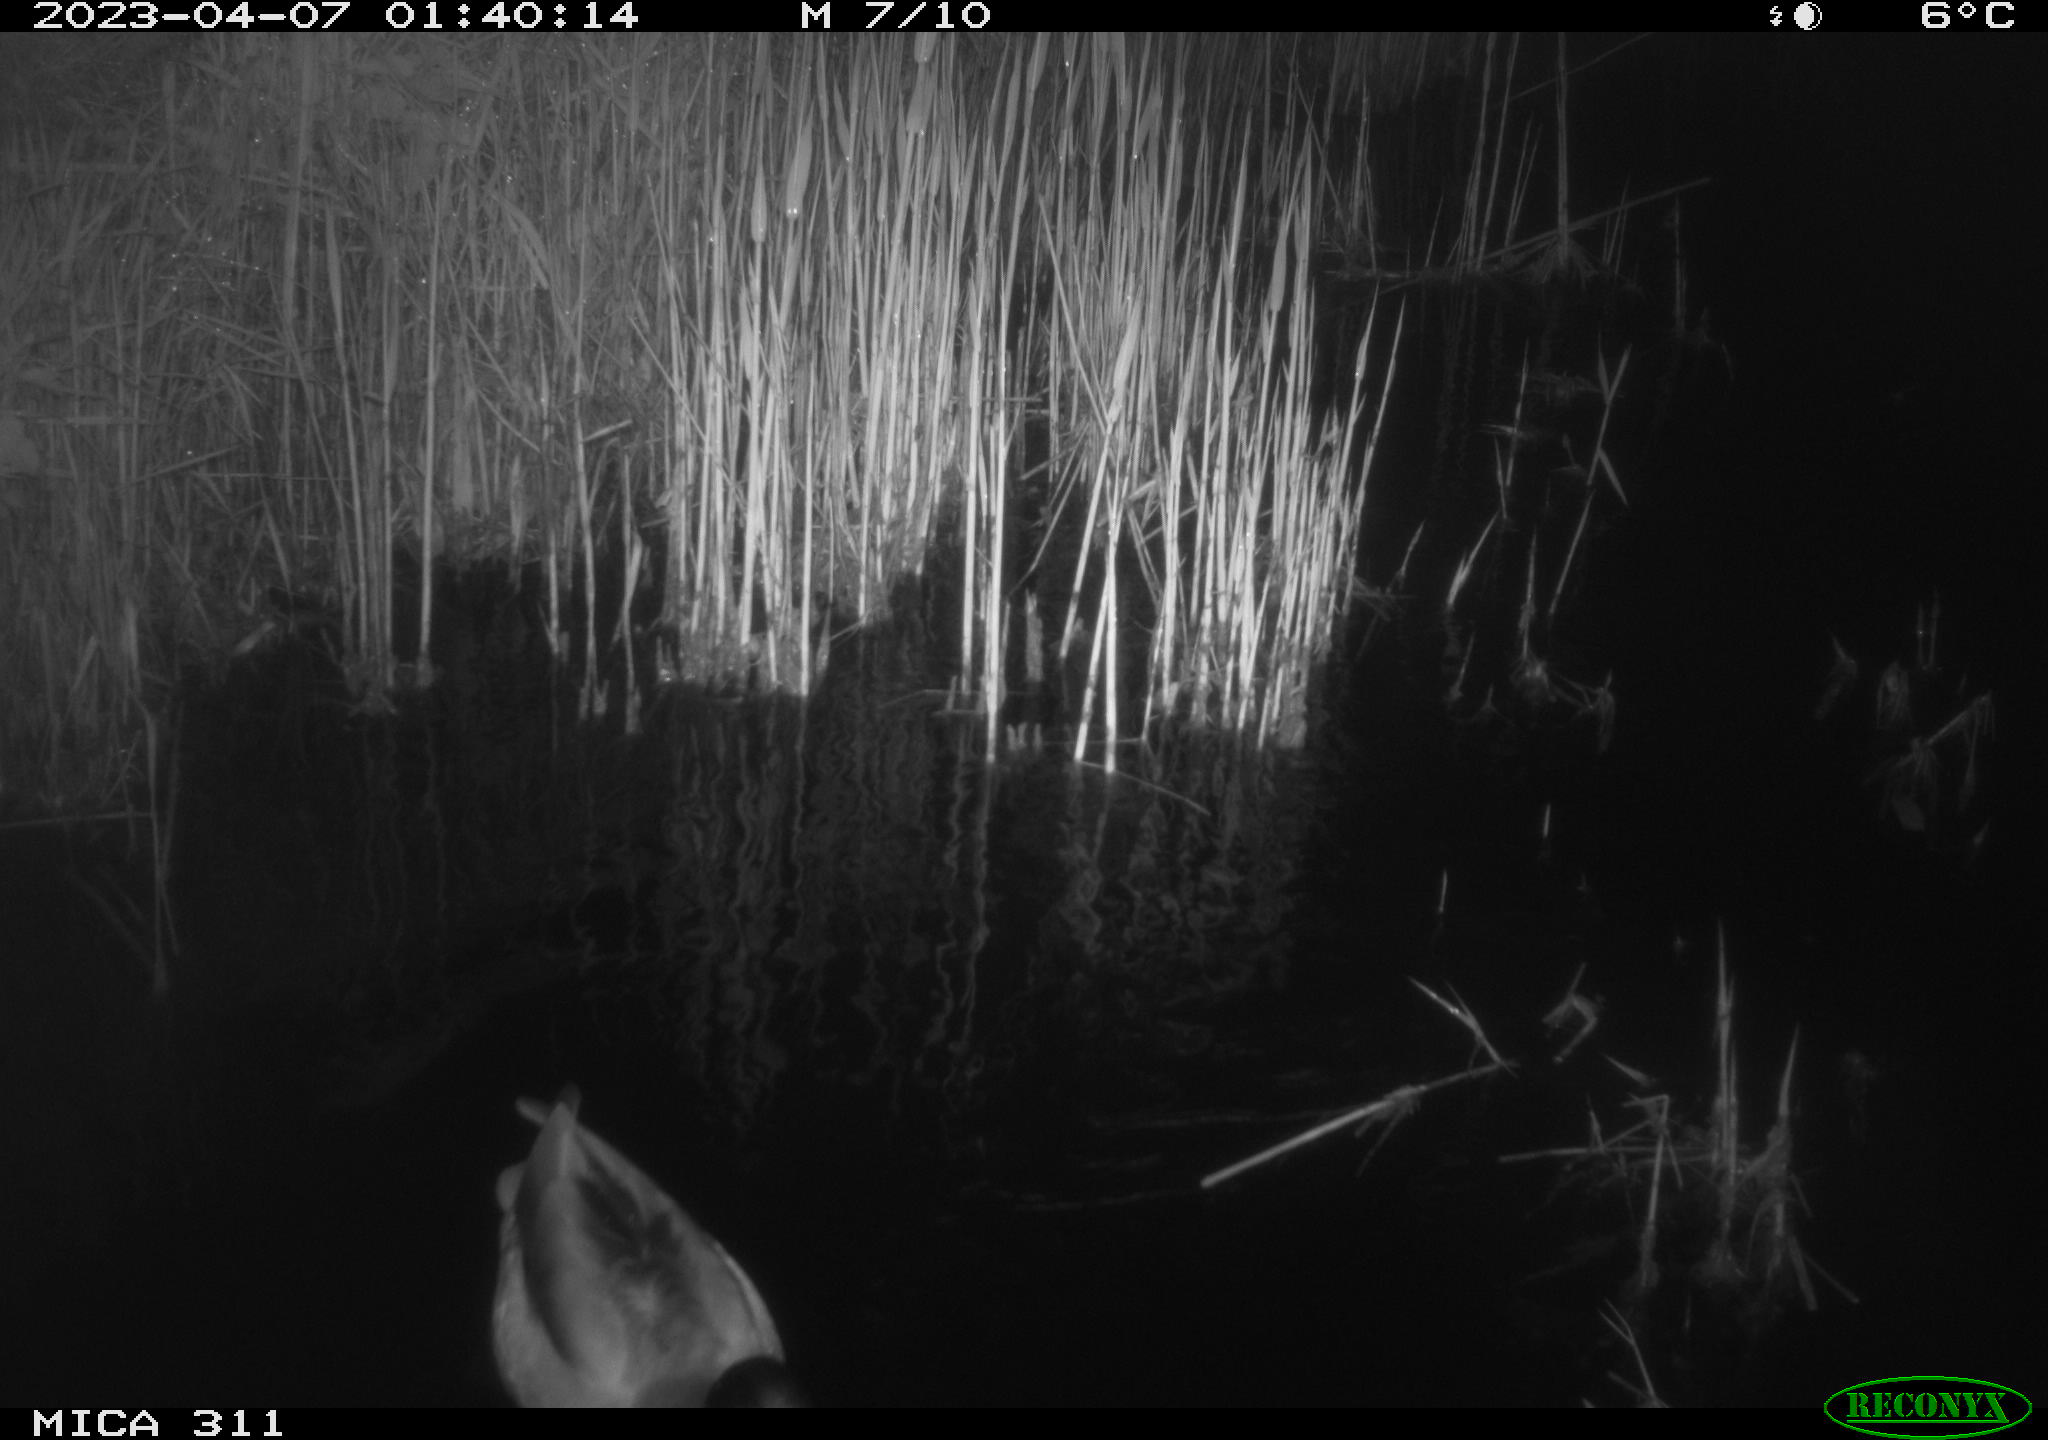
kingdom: Animalia
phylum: Chordata
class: Aves
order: Anseriformes
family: Anatidae
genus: Anas
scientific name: Anas
